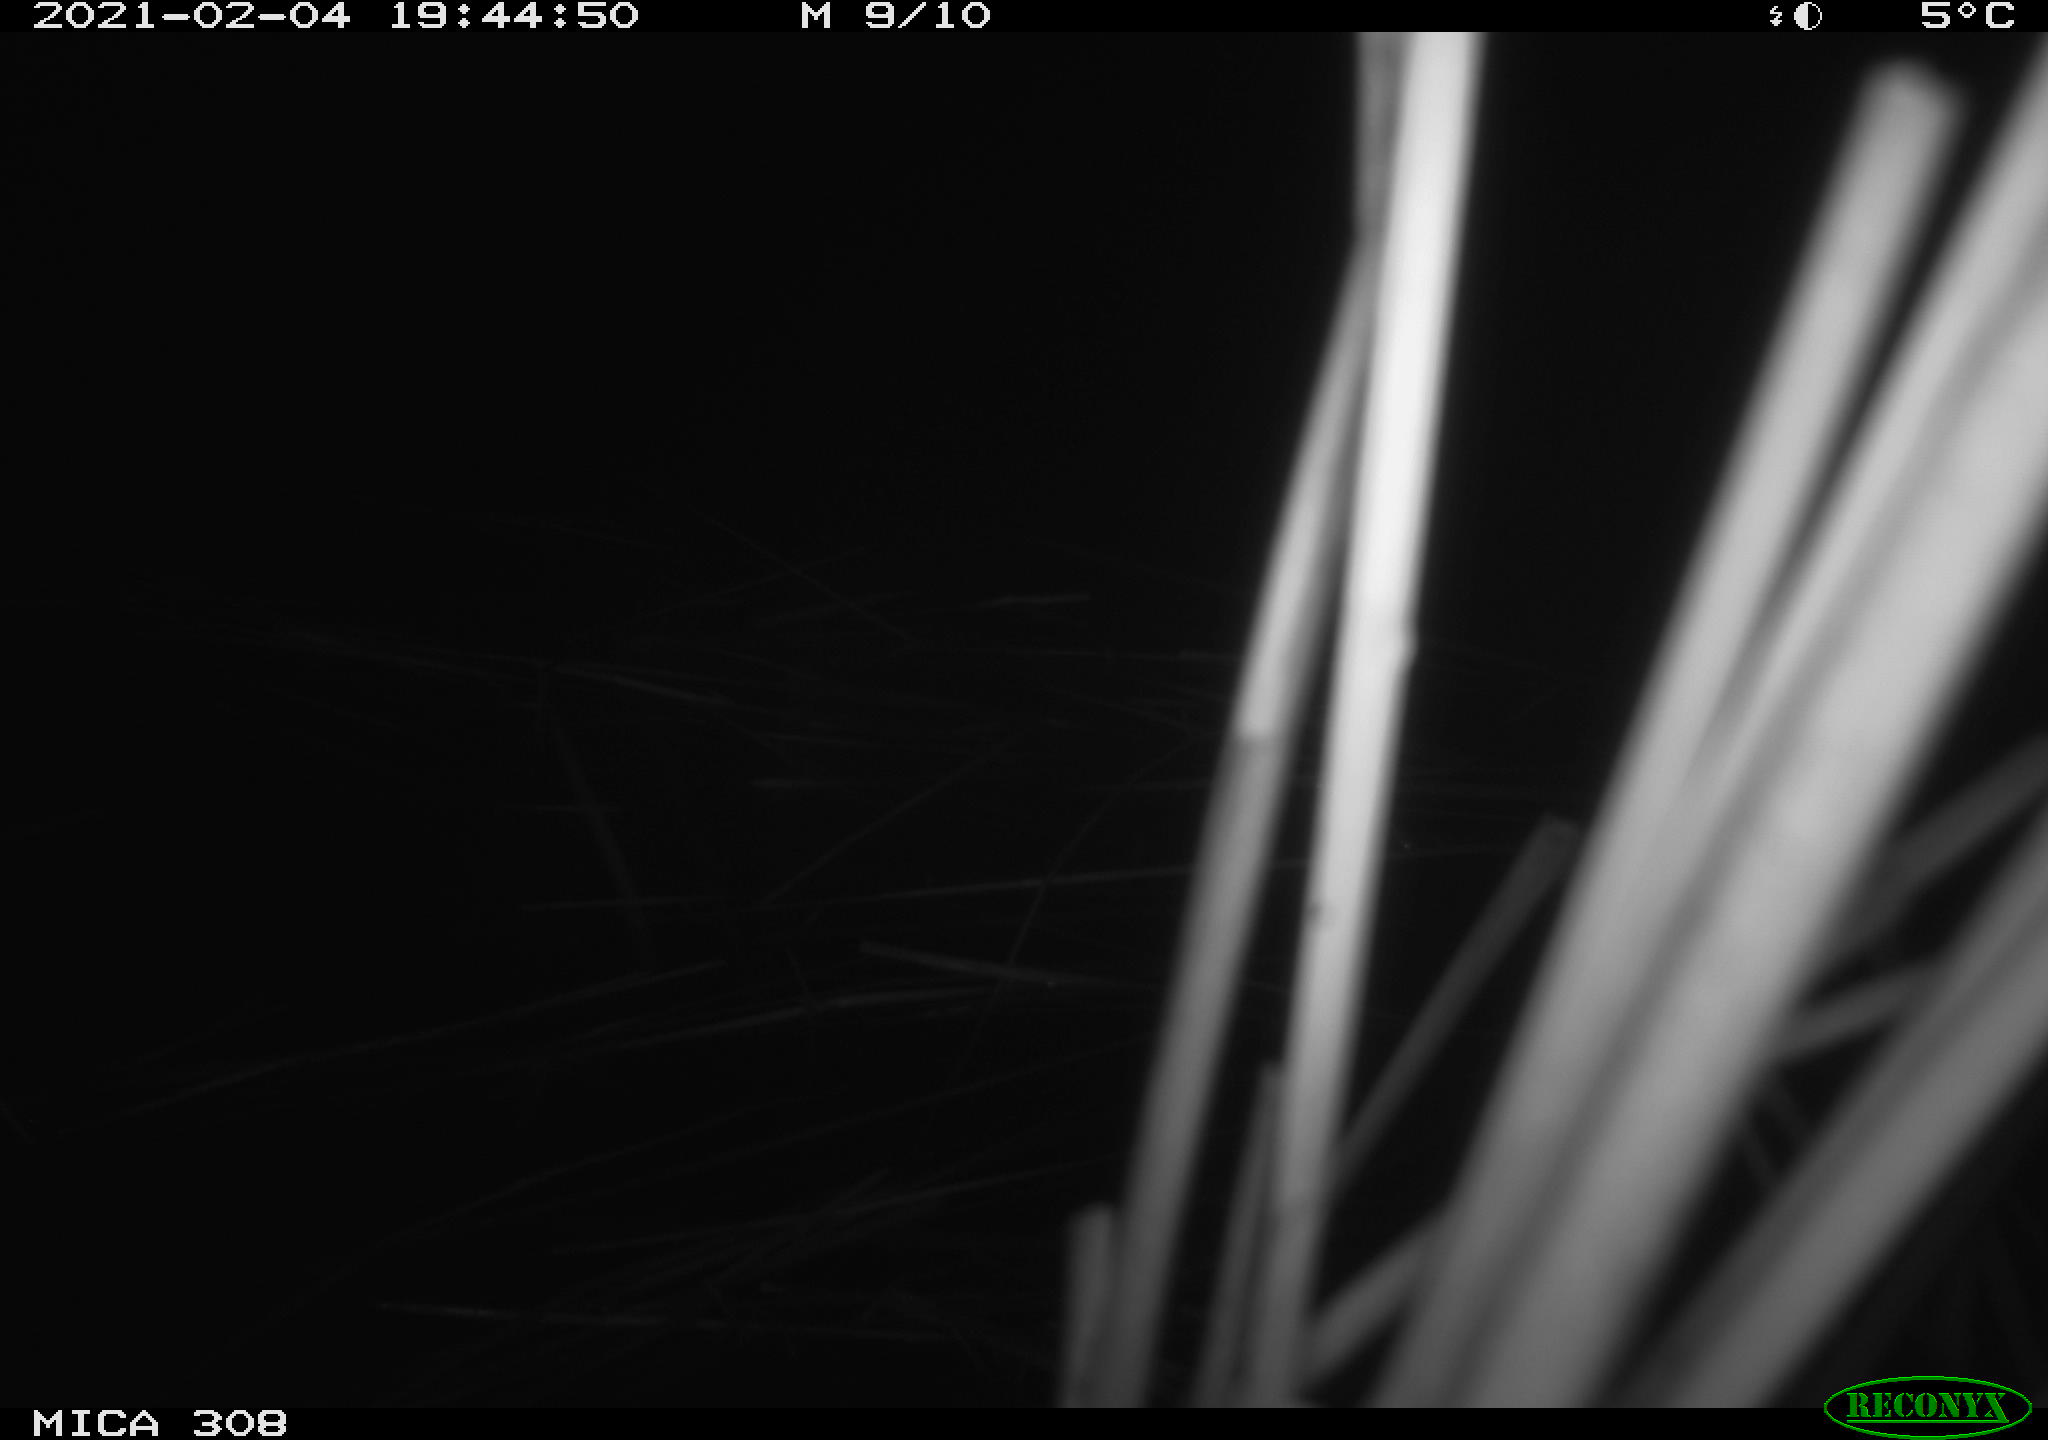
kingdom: Animalia
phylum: Chordata
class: Mammalia
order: Rodentia
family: Cricetidae
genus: Ondatra
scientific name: Ondatra zibethicus
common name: Muskrat
